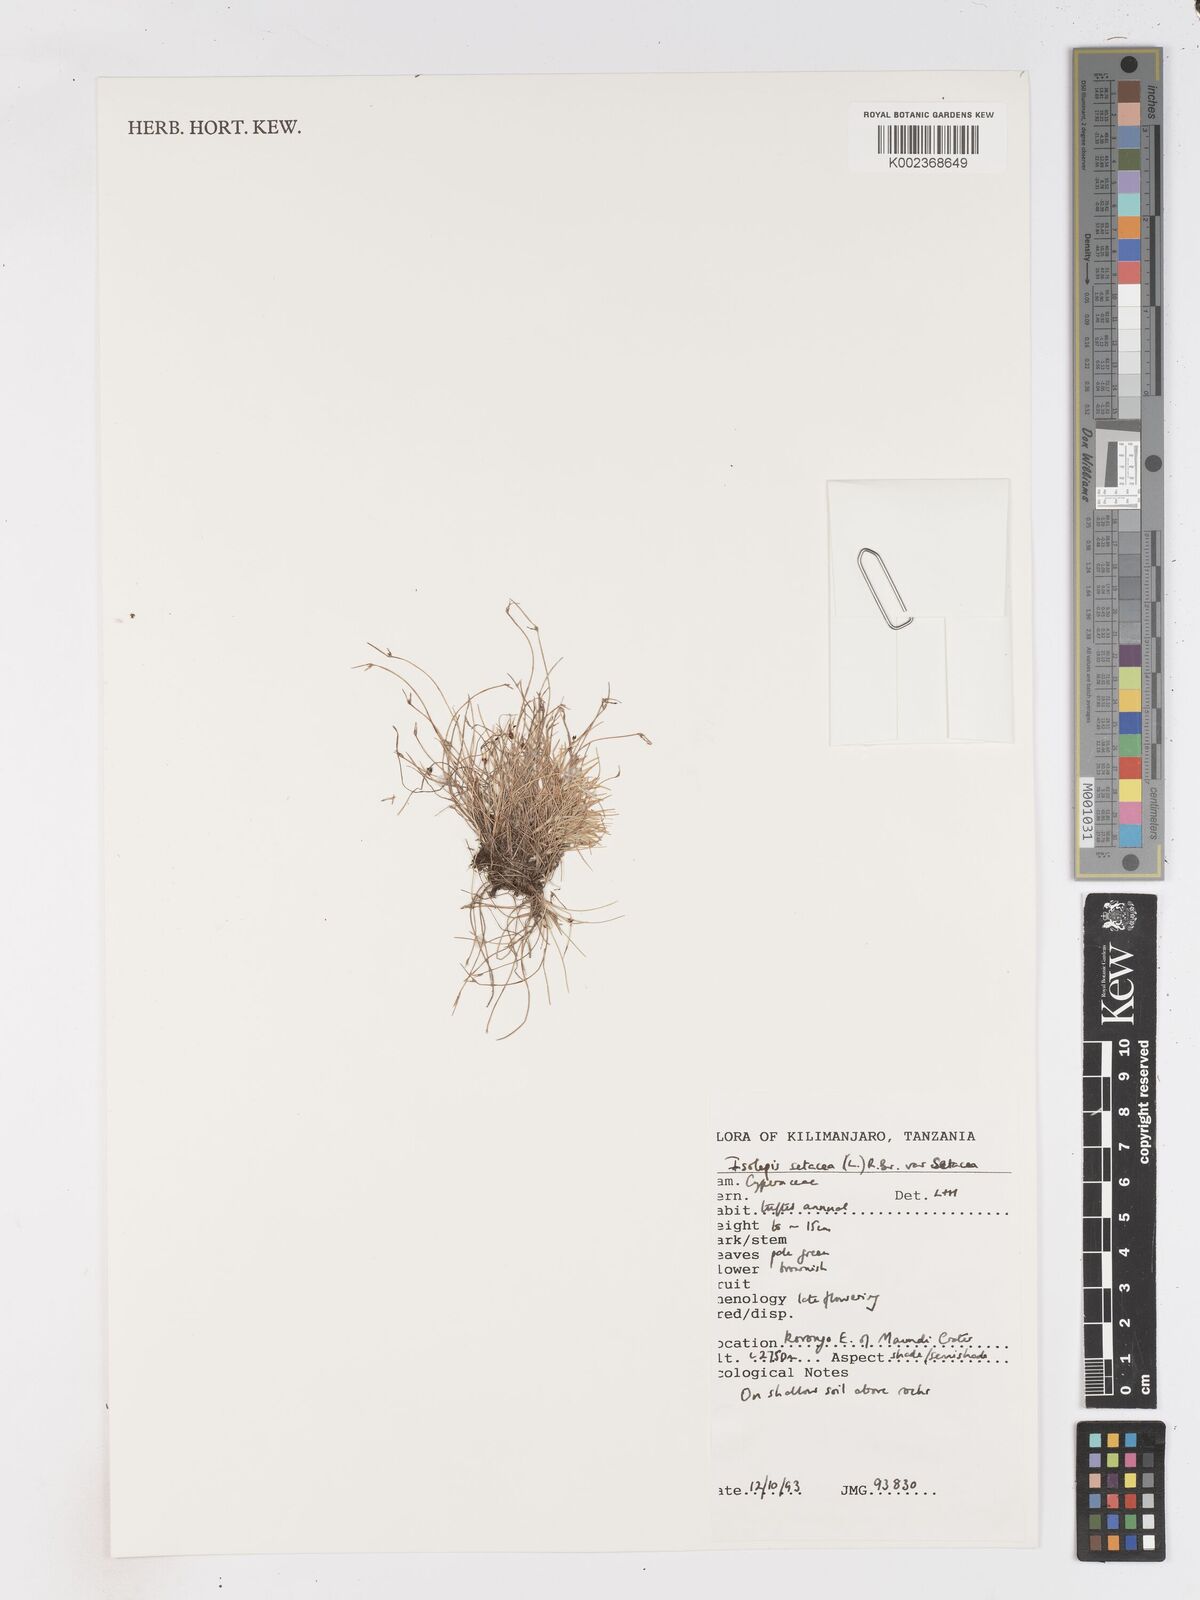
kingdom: Plantae
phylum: Tracheophyta
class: Liliopsida
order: Poales
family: Cyperaceae
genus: Isolepis
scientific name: Isolepis setacea
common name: Bristle club-rush
